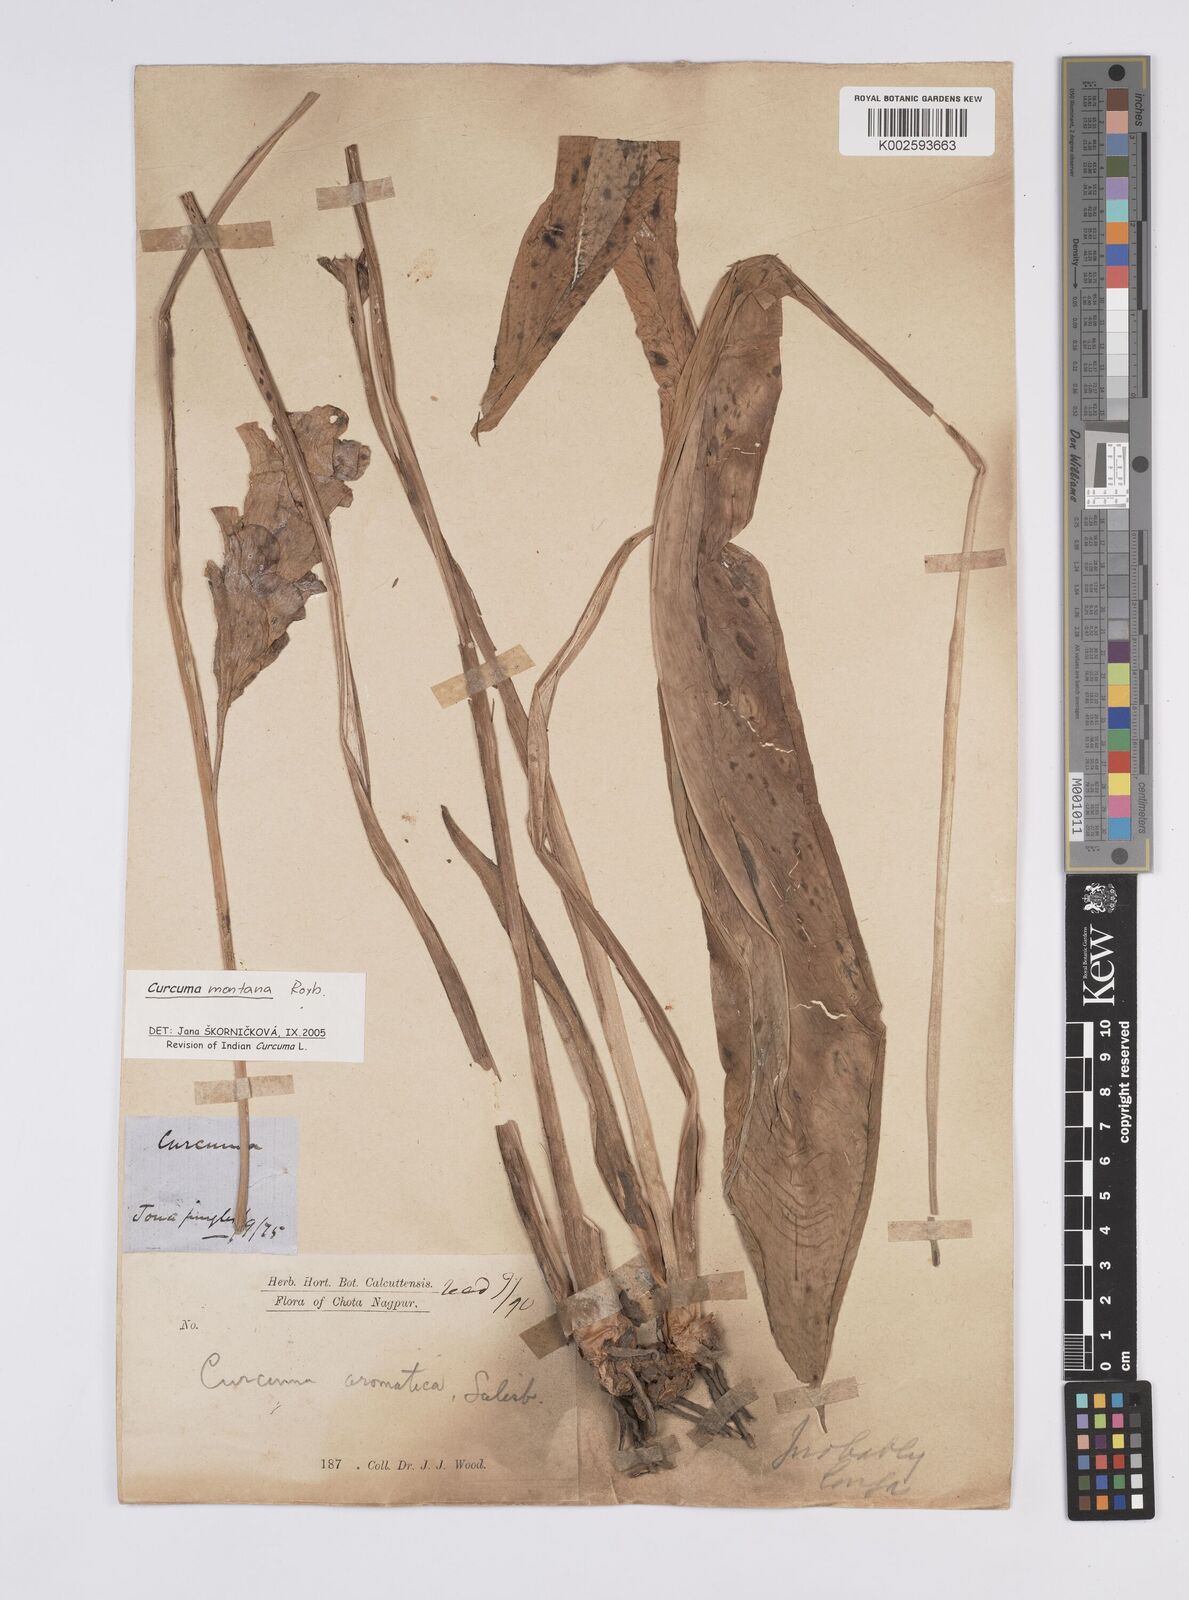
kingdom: Plantae
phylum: Tracheophyta
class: Liliopsida
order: Zingiberales
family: Zingiberaceae
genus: Curcuma
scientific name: Curcuma montana
